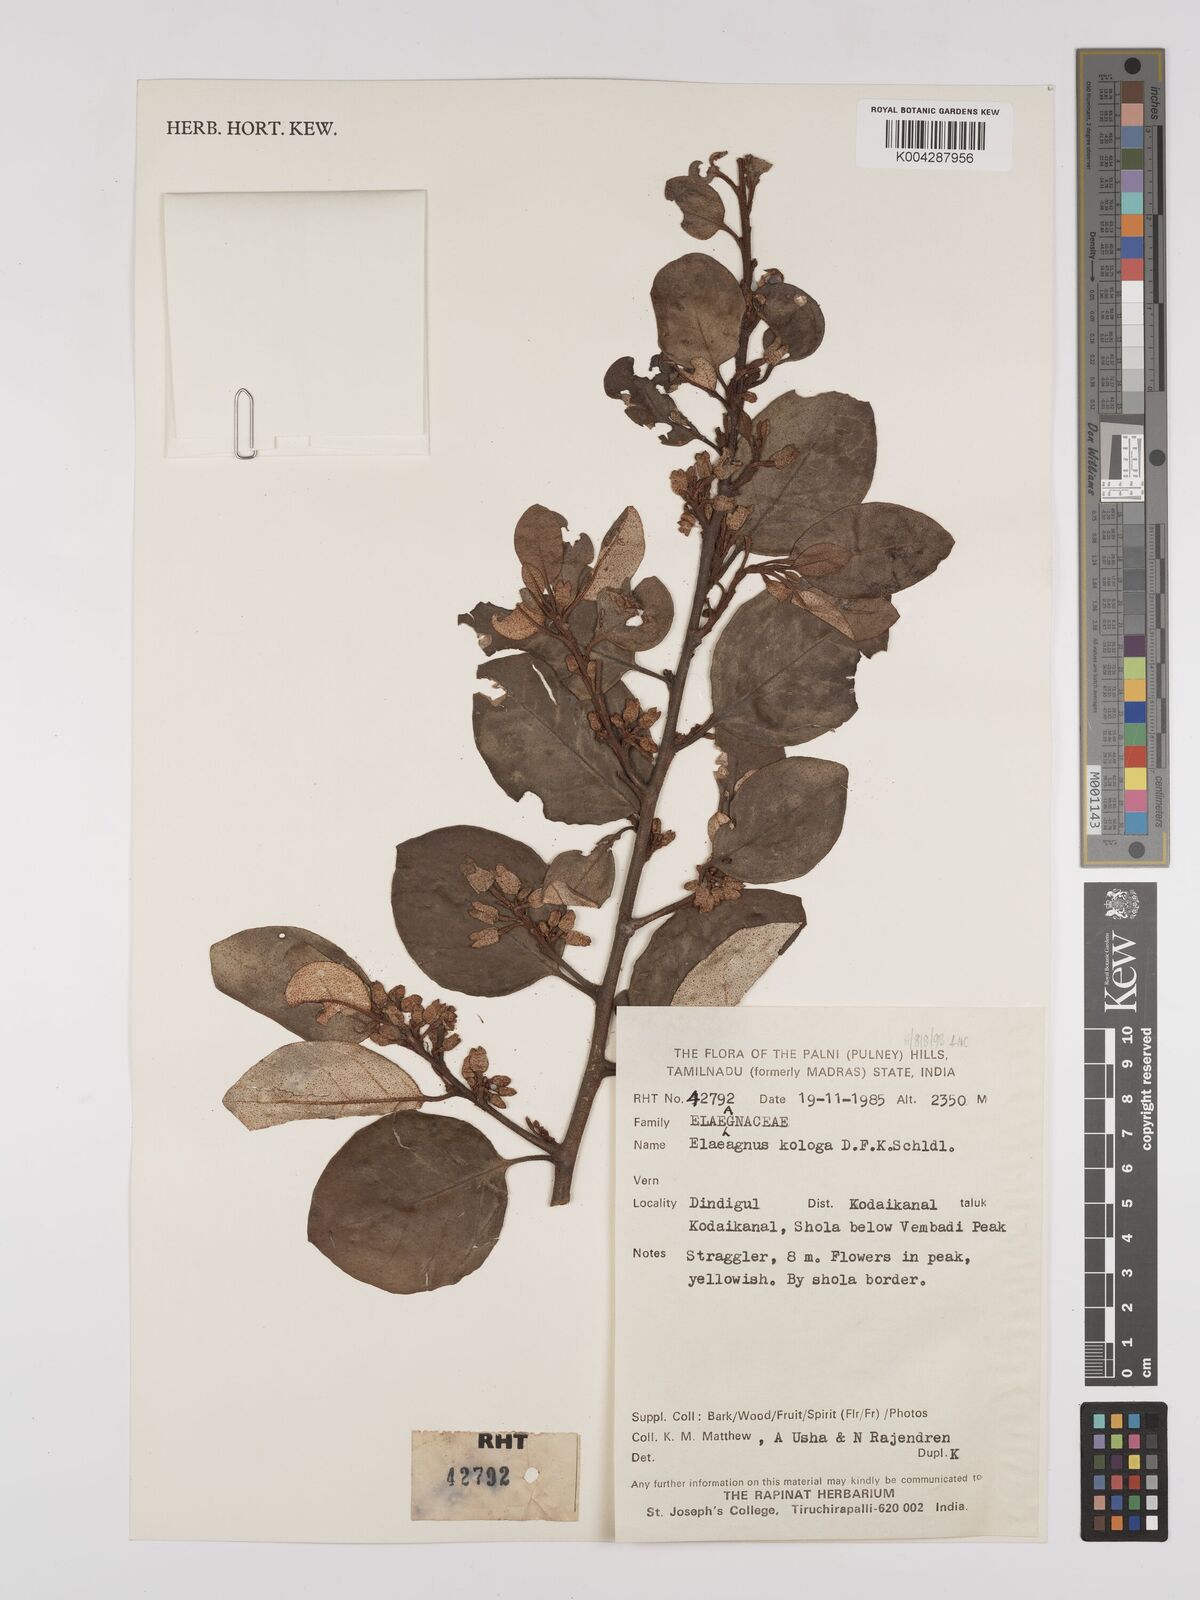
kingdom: Plantae
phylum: Tracheophyta
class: Magnoliopsida
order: Rosales
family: Elaeagnaceae
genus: Elaeagnus
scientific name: Elaeagnus latifolia
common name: Oleaster
